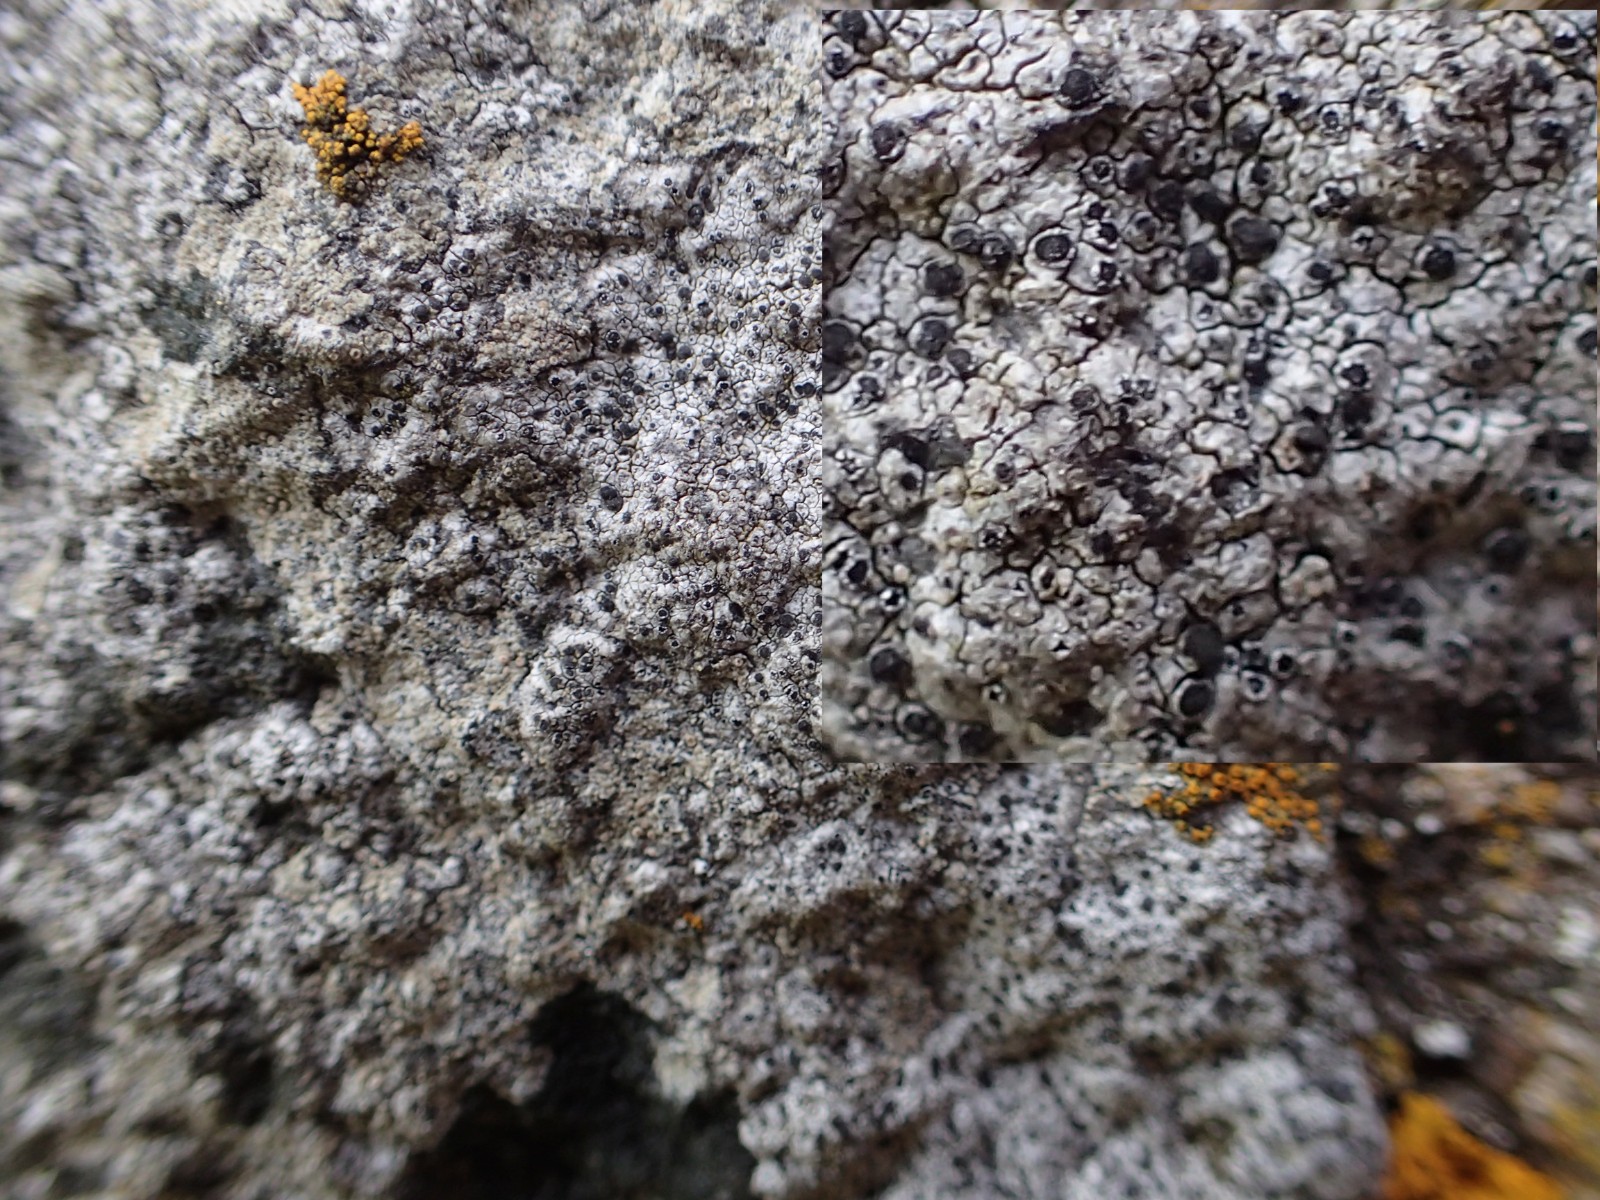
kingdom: Fungi
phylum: Ascomycota
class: Lecanoromycetes
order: Lecanorales
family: Lecanoraceae
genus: Lecanora
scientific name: Lecanora
